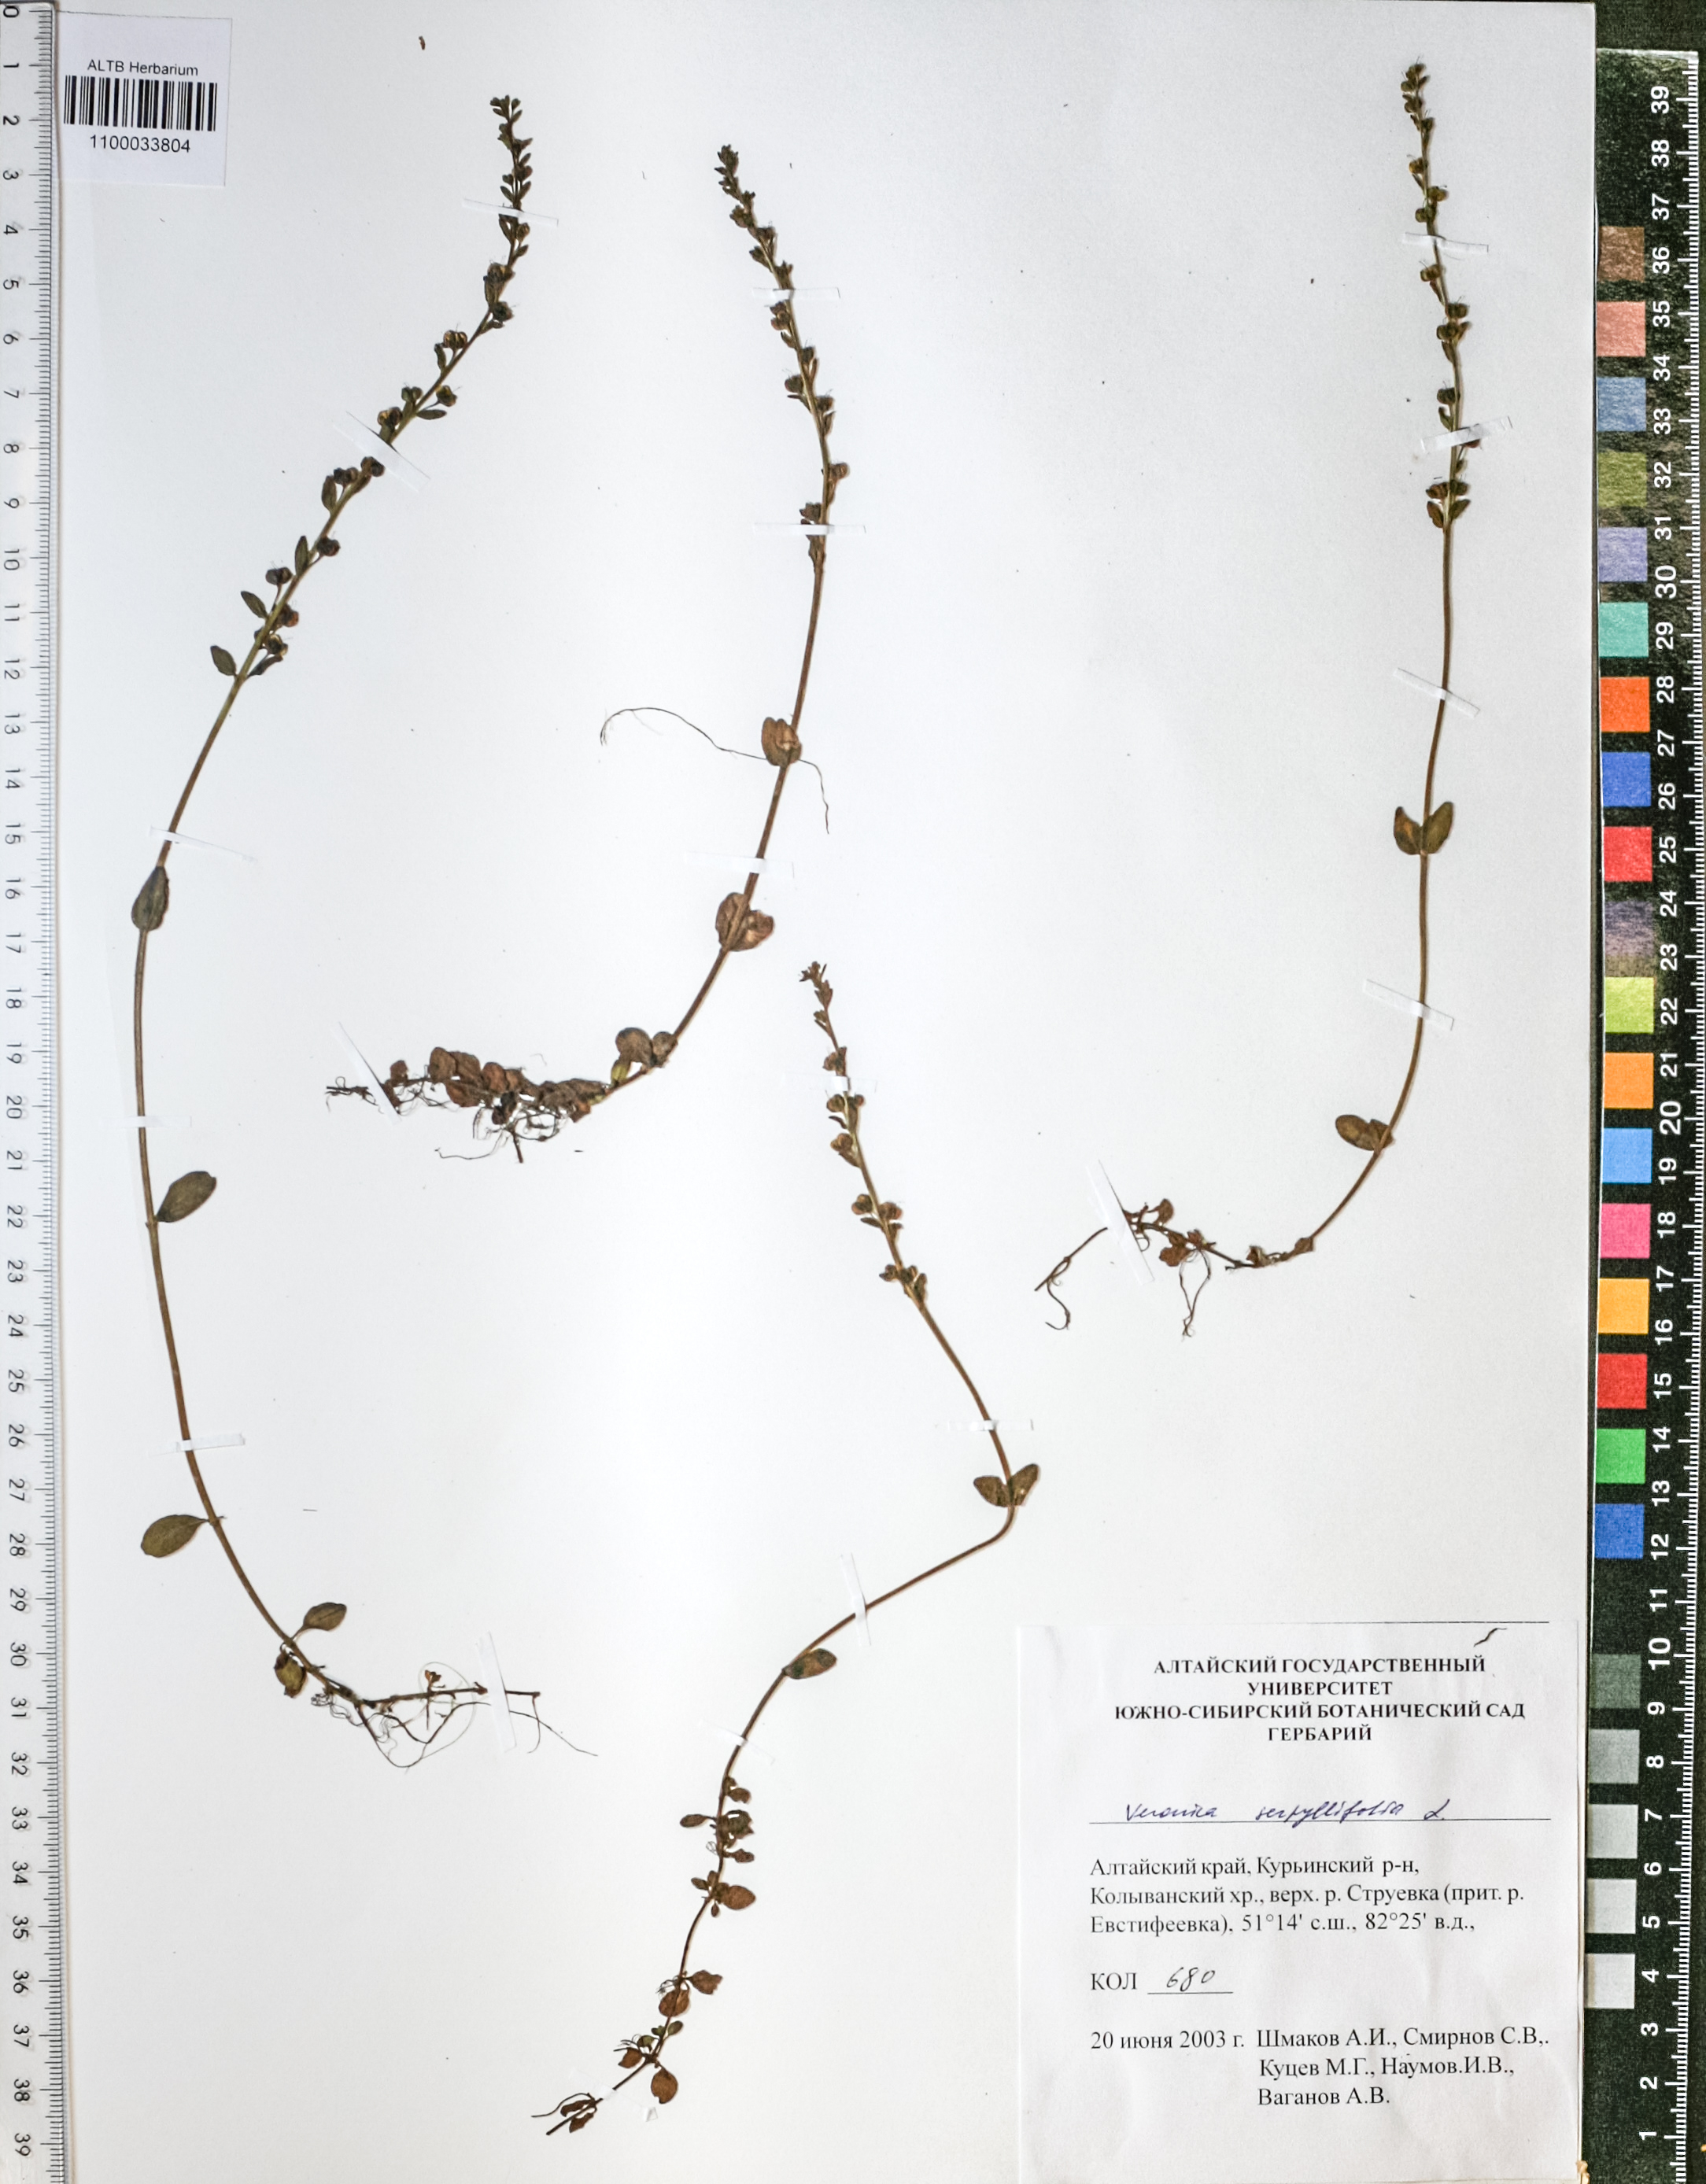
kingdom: Plantae
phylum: Tracheophyta
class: Magnoliopsida
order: Lamiales
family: Plantaginaceae
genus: Veronica
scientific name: Veronica serpyllifolia
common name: Thyme-leaved speedwell
